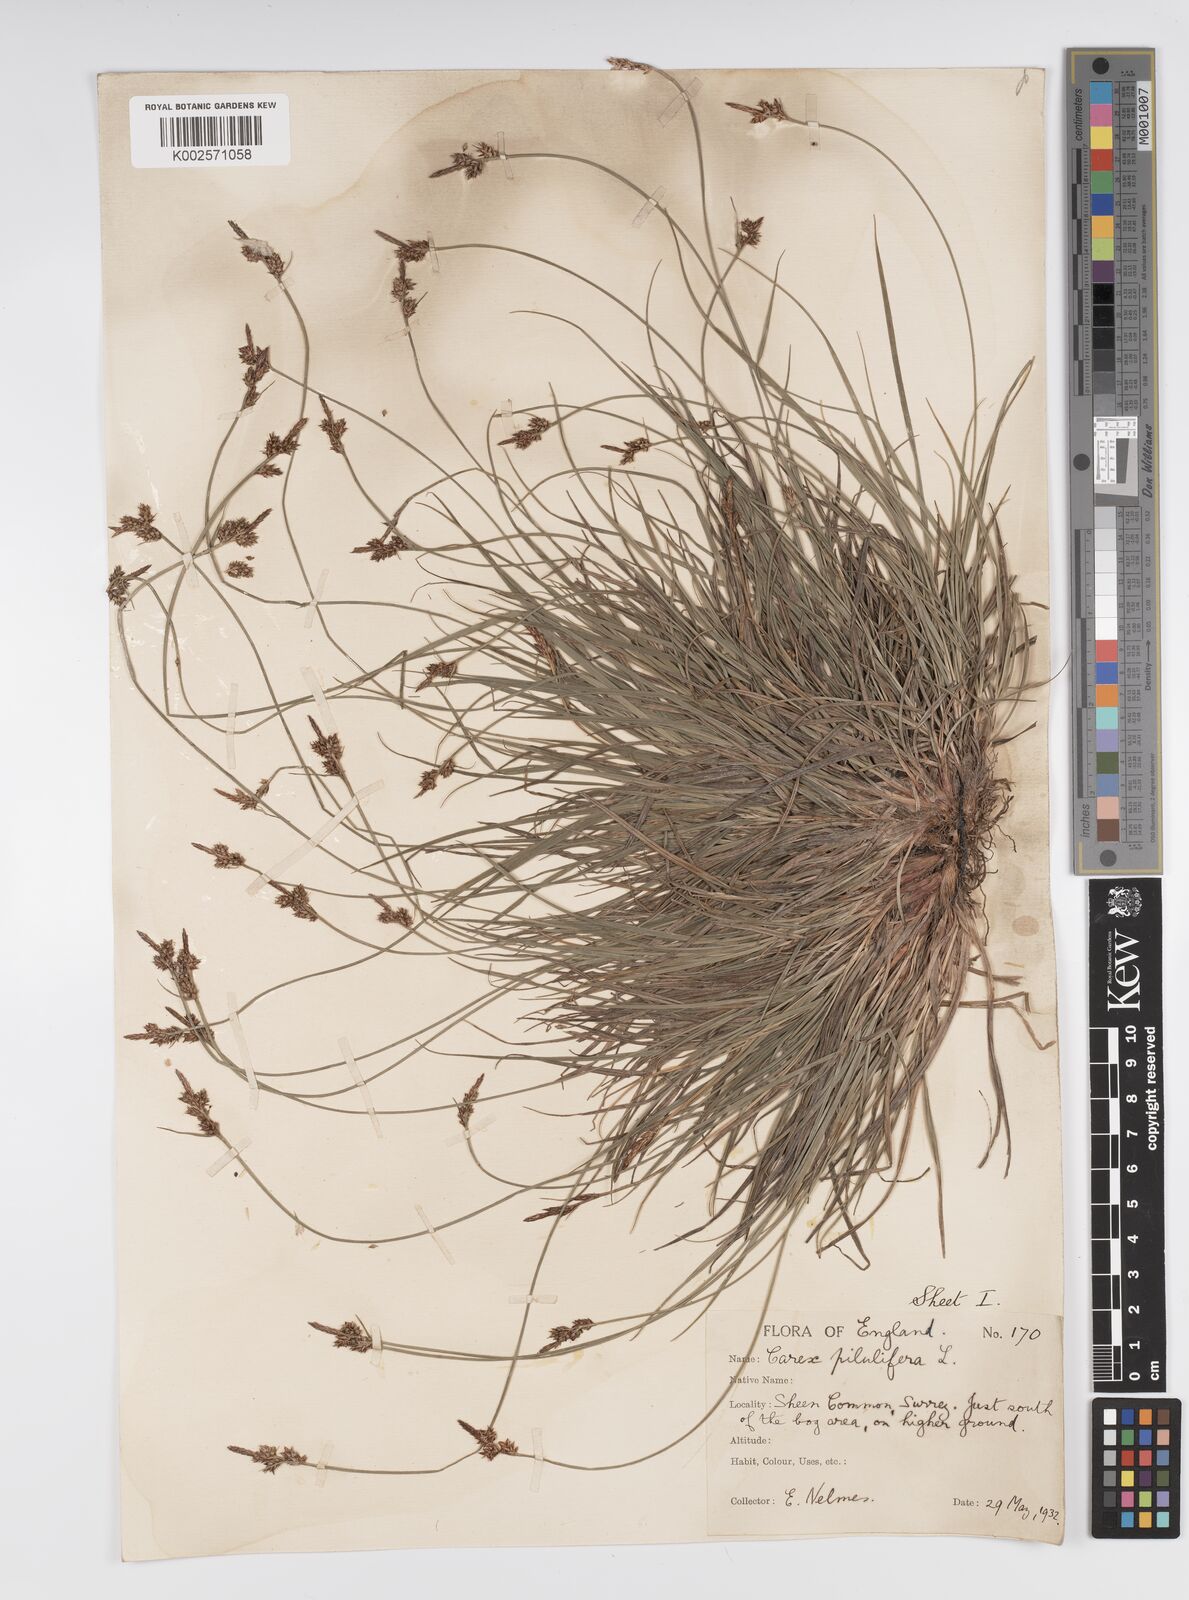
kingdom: Plantae
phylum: Tracheophyta
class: Liliopsida
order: Poales
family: Cyperaceae
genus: Carex
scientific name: Carex pilulifera
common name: Pill sedge
